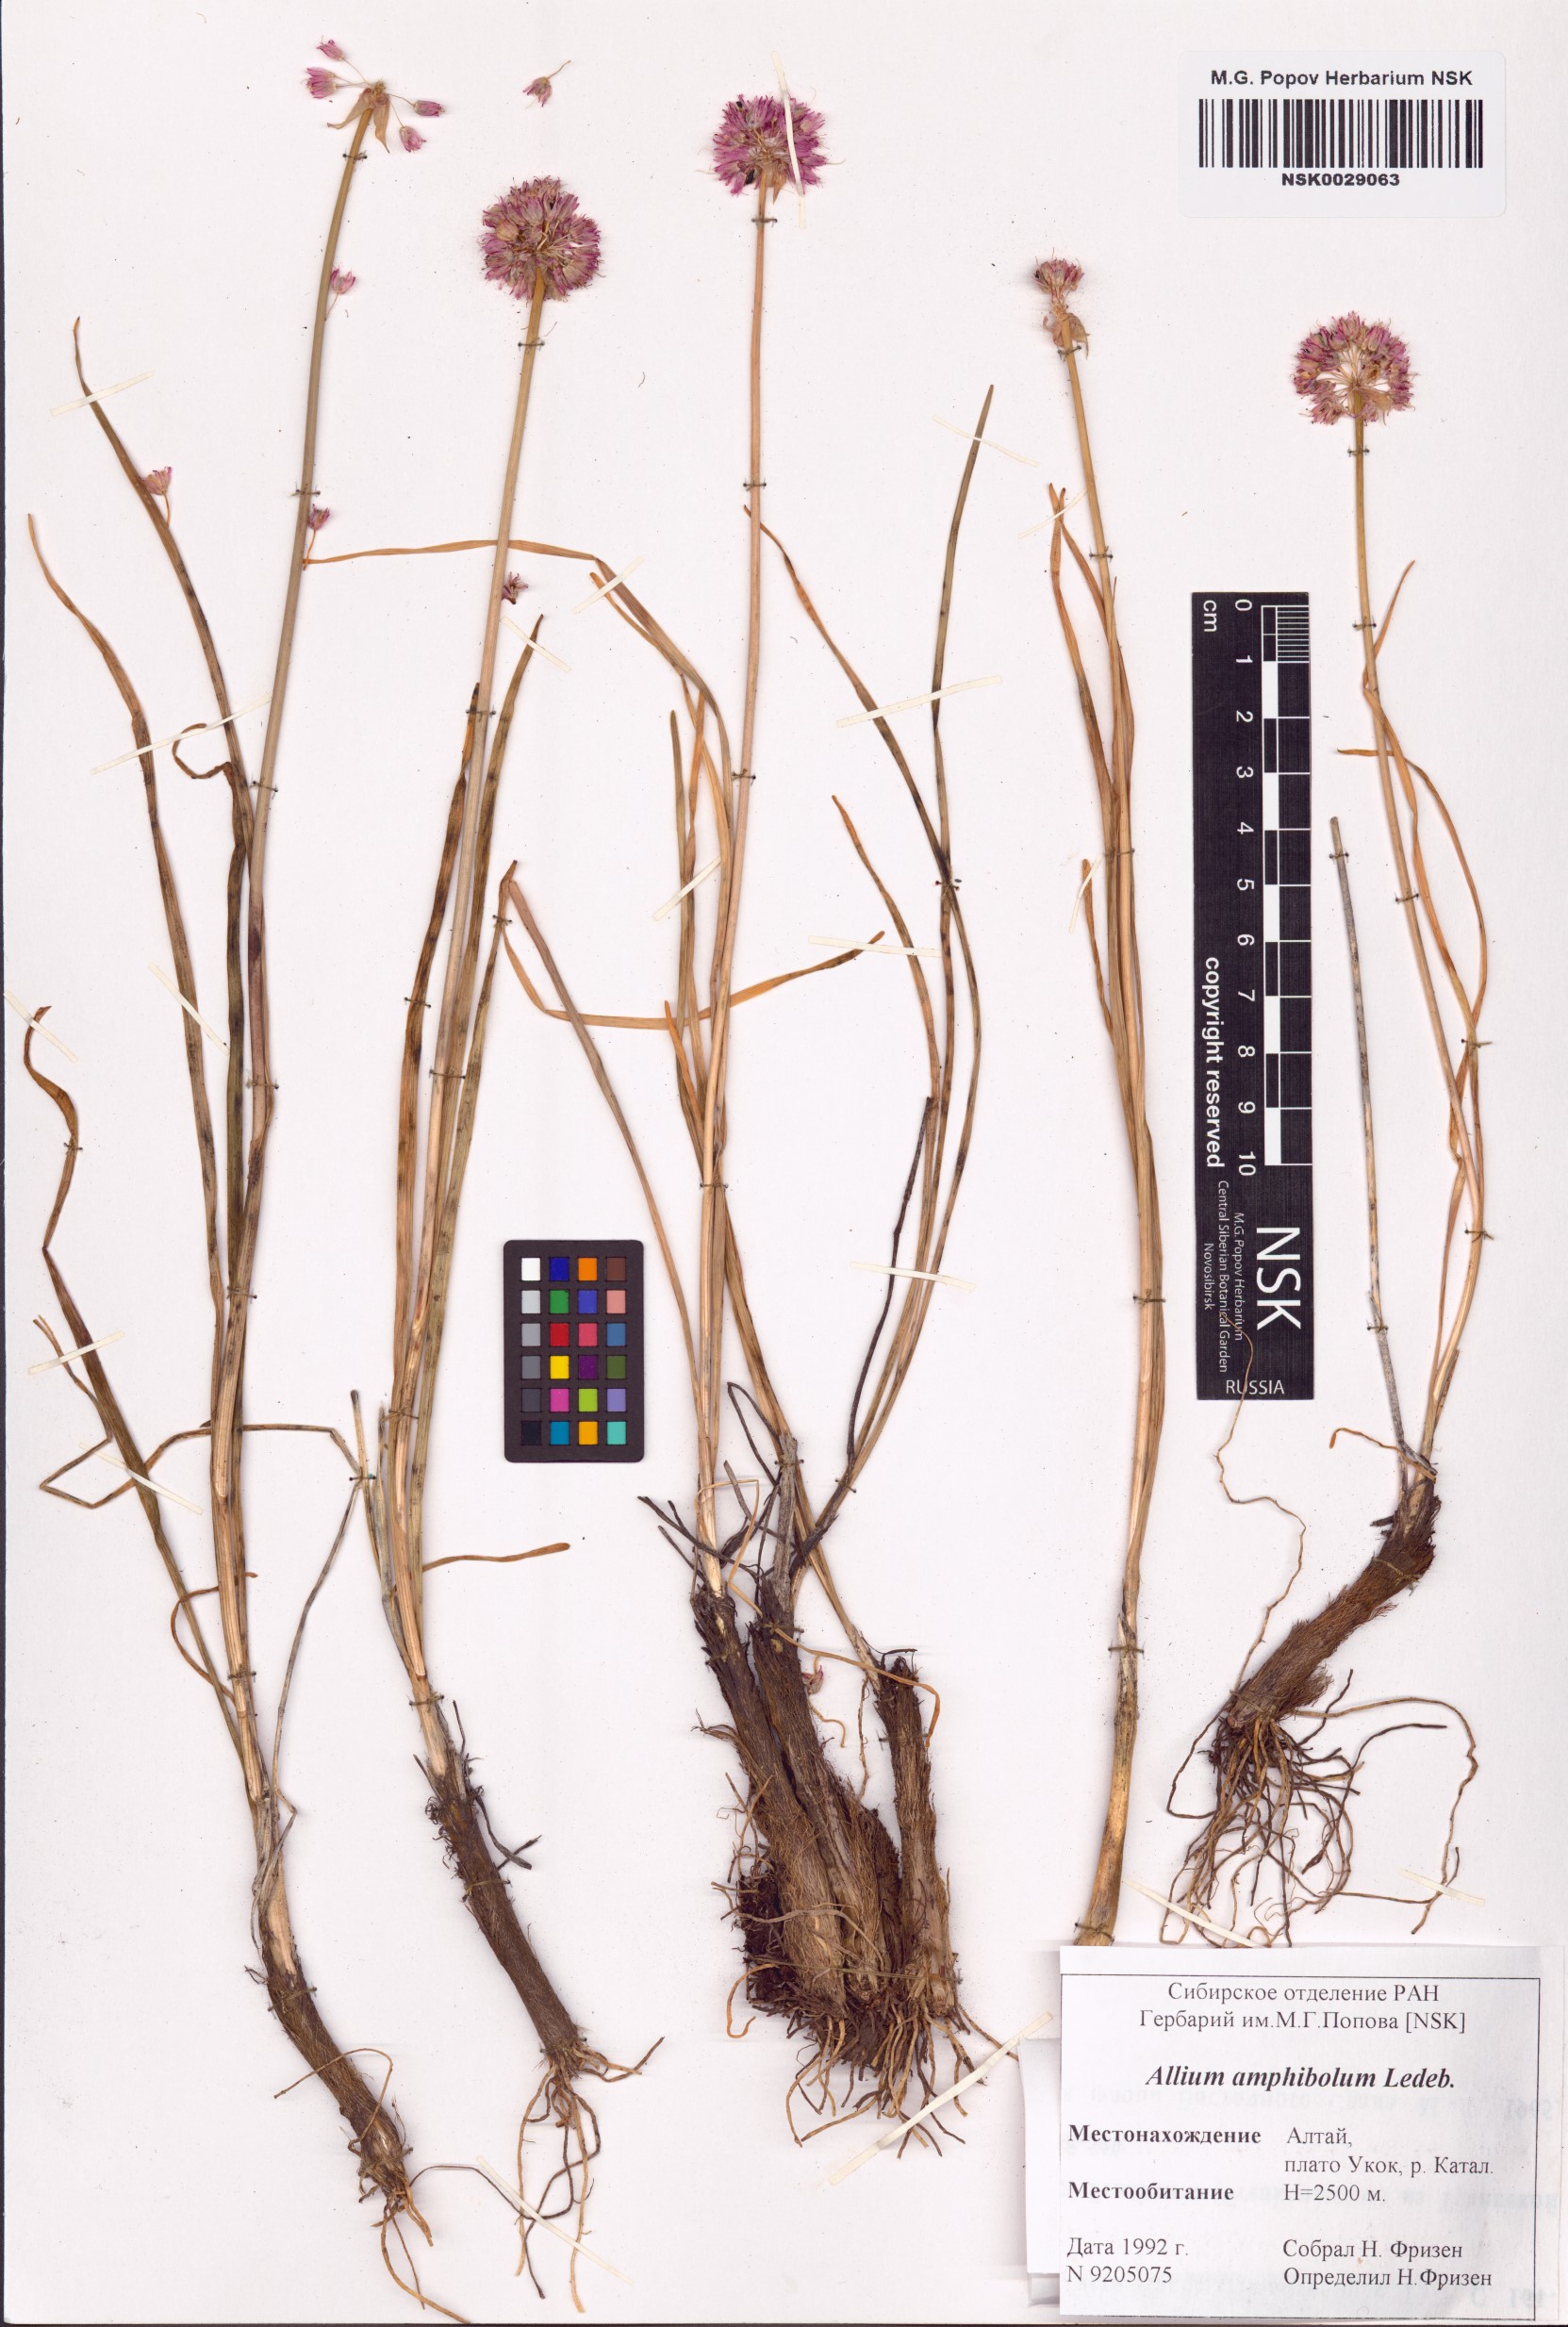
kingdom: Plantae
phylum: Tracheophyta
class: Liliopsida
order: Asparagales
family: Amaryllidaceae
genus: Allium
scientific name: Allium amphibolum
